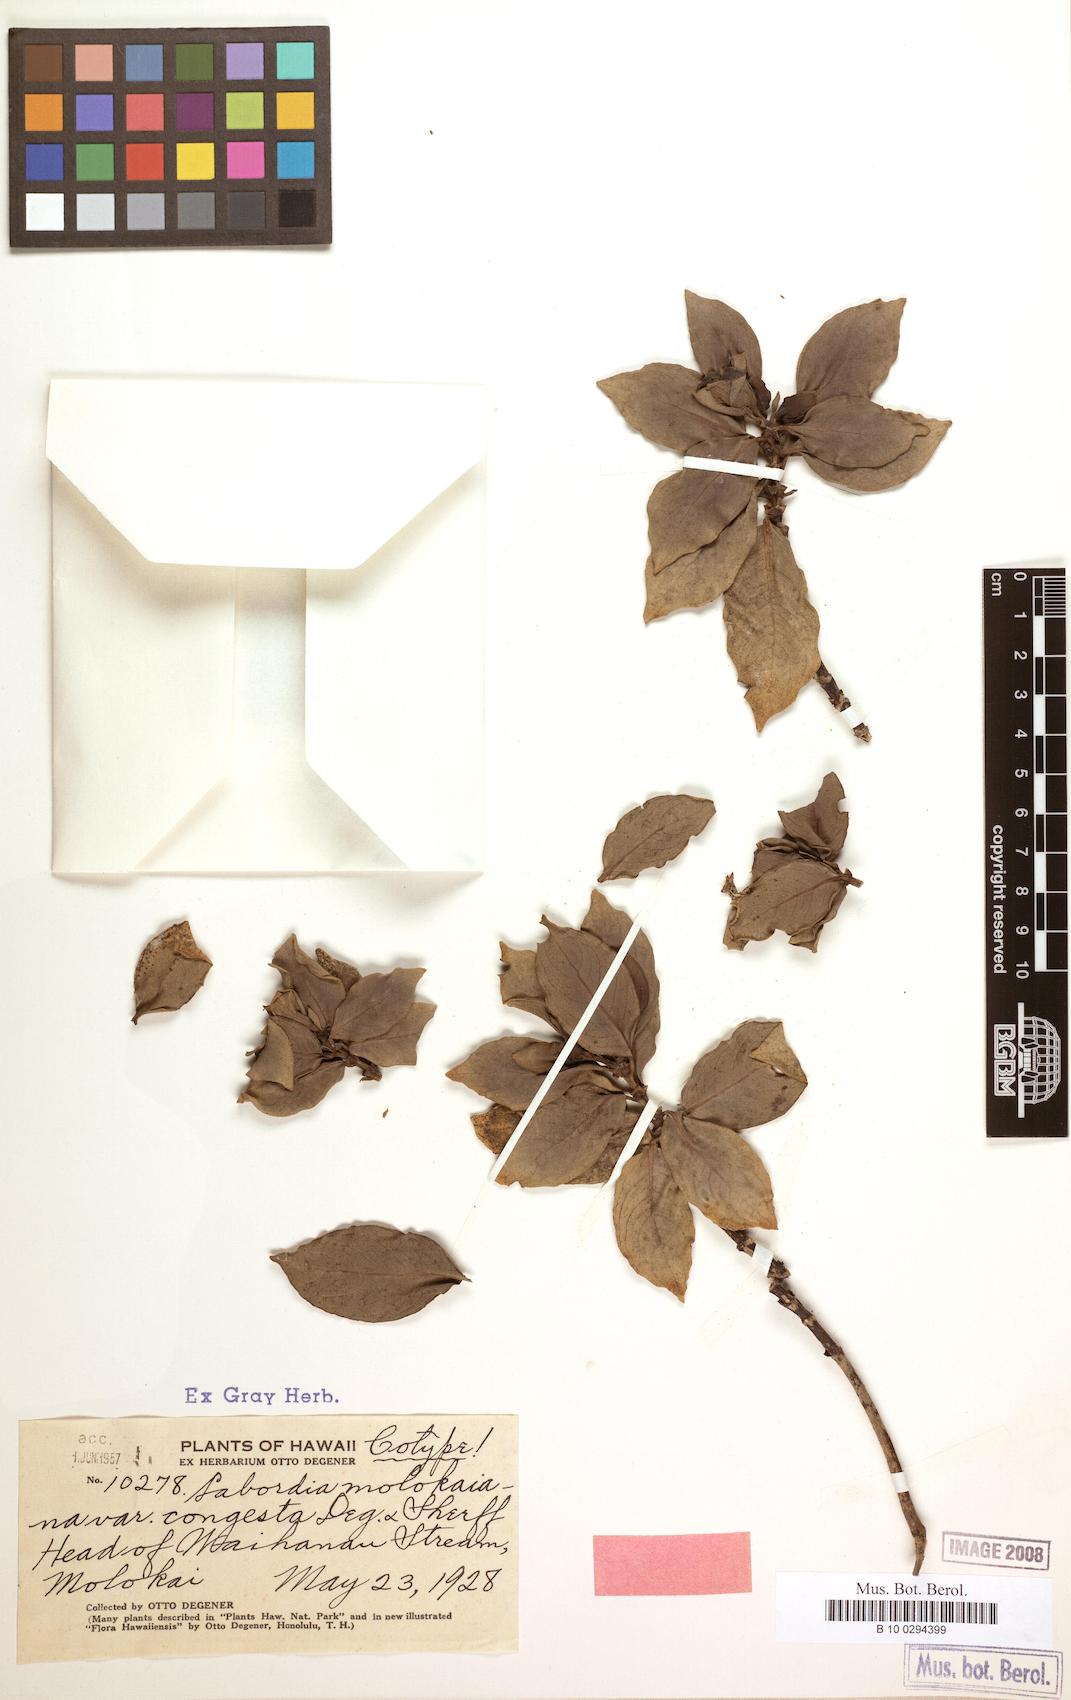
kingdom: Plantae
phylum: Tracheophyta
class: Magnoliopsida
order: Gentianales
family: Loganiaceae
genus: Geniostoma
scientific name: Geniostoma waiolani
